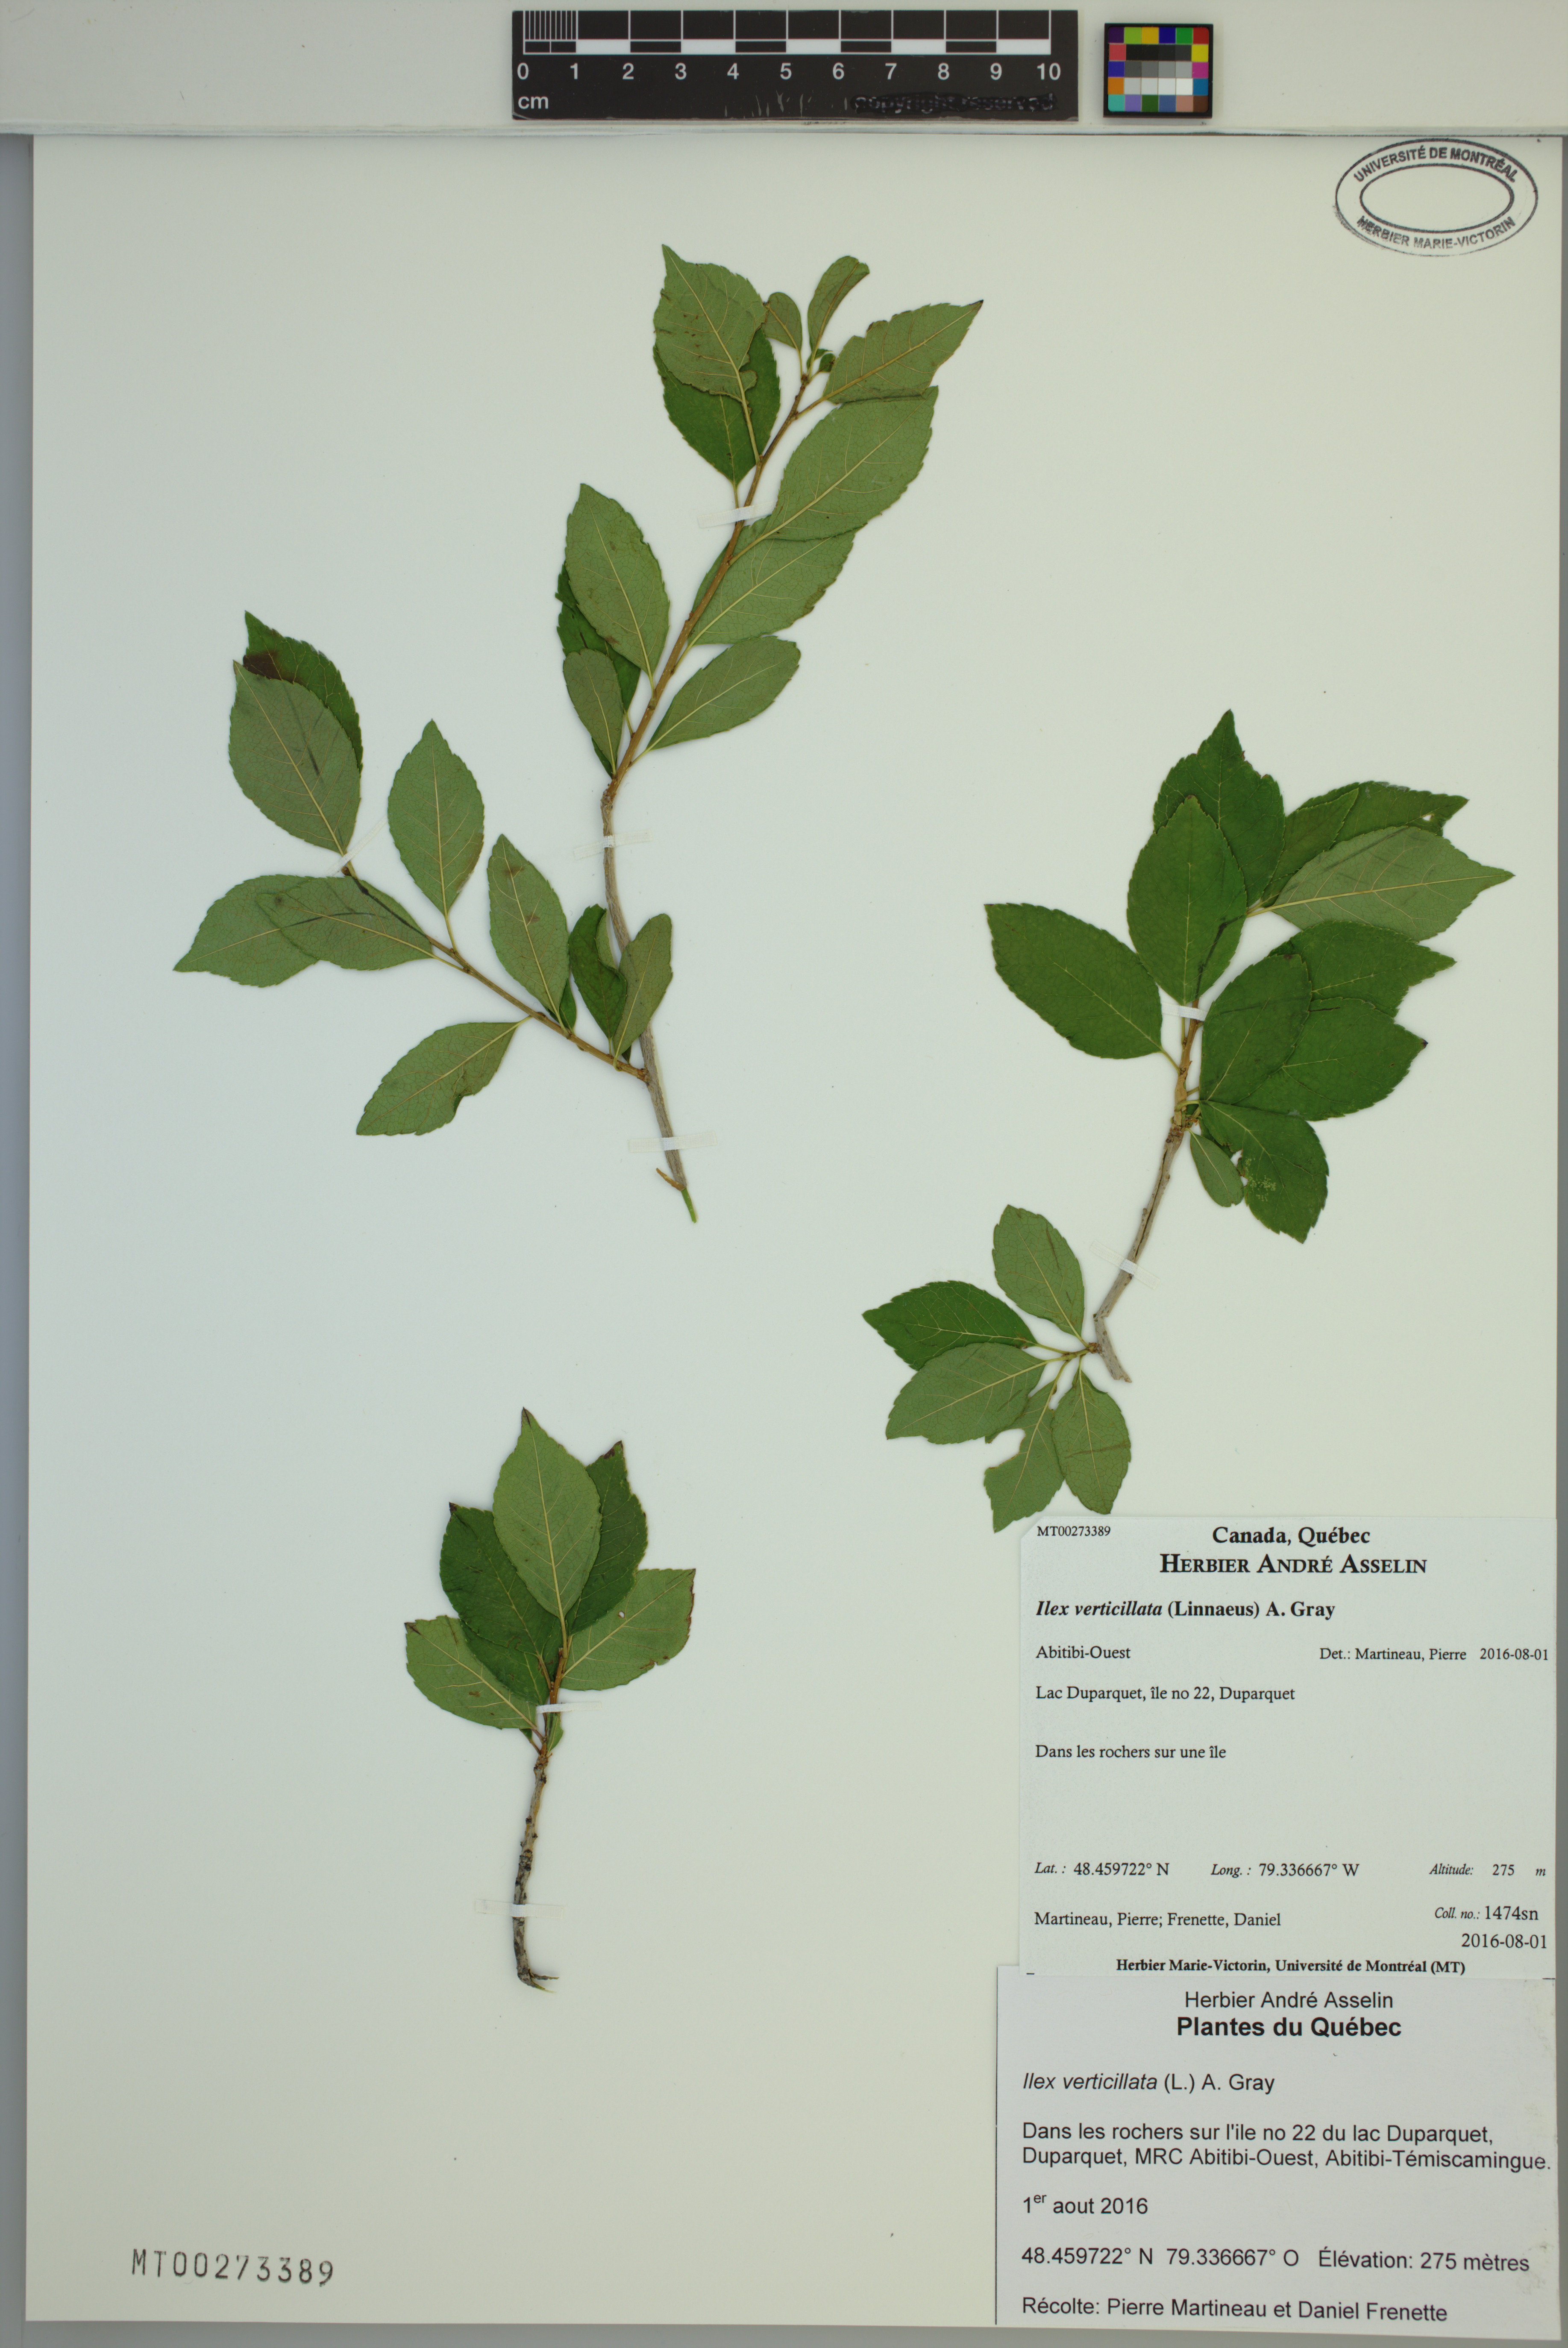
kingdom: Plantae
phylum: Tracheophyta
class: Magnoliopsida
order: Aquifoliales
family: Aquifoliaceae
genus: Ilex
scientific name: Ilex verticillata
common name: Virginia winterberry
